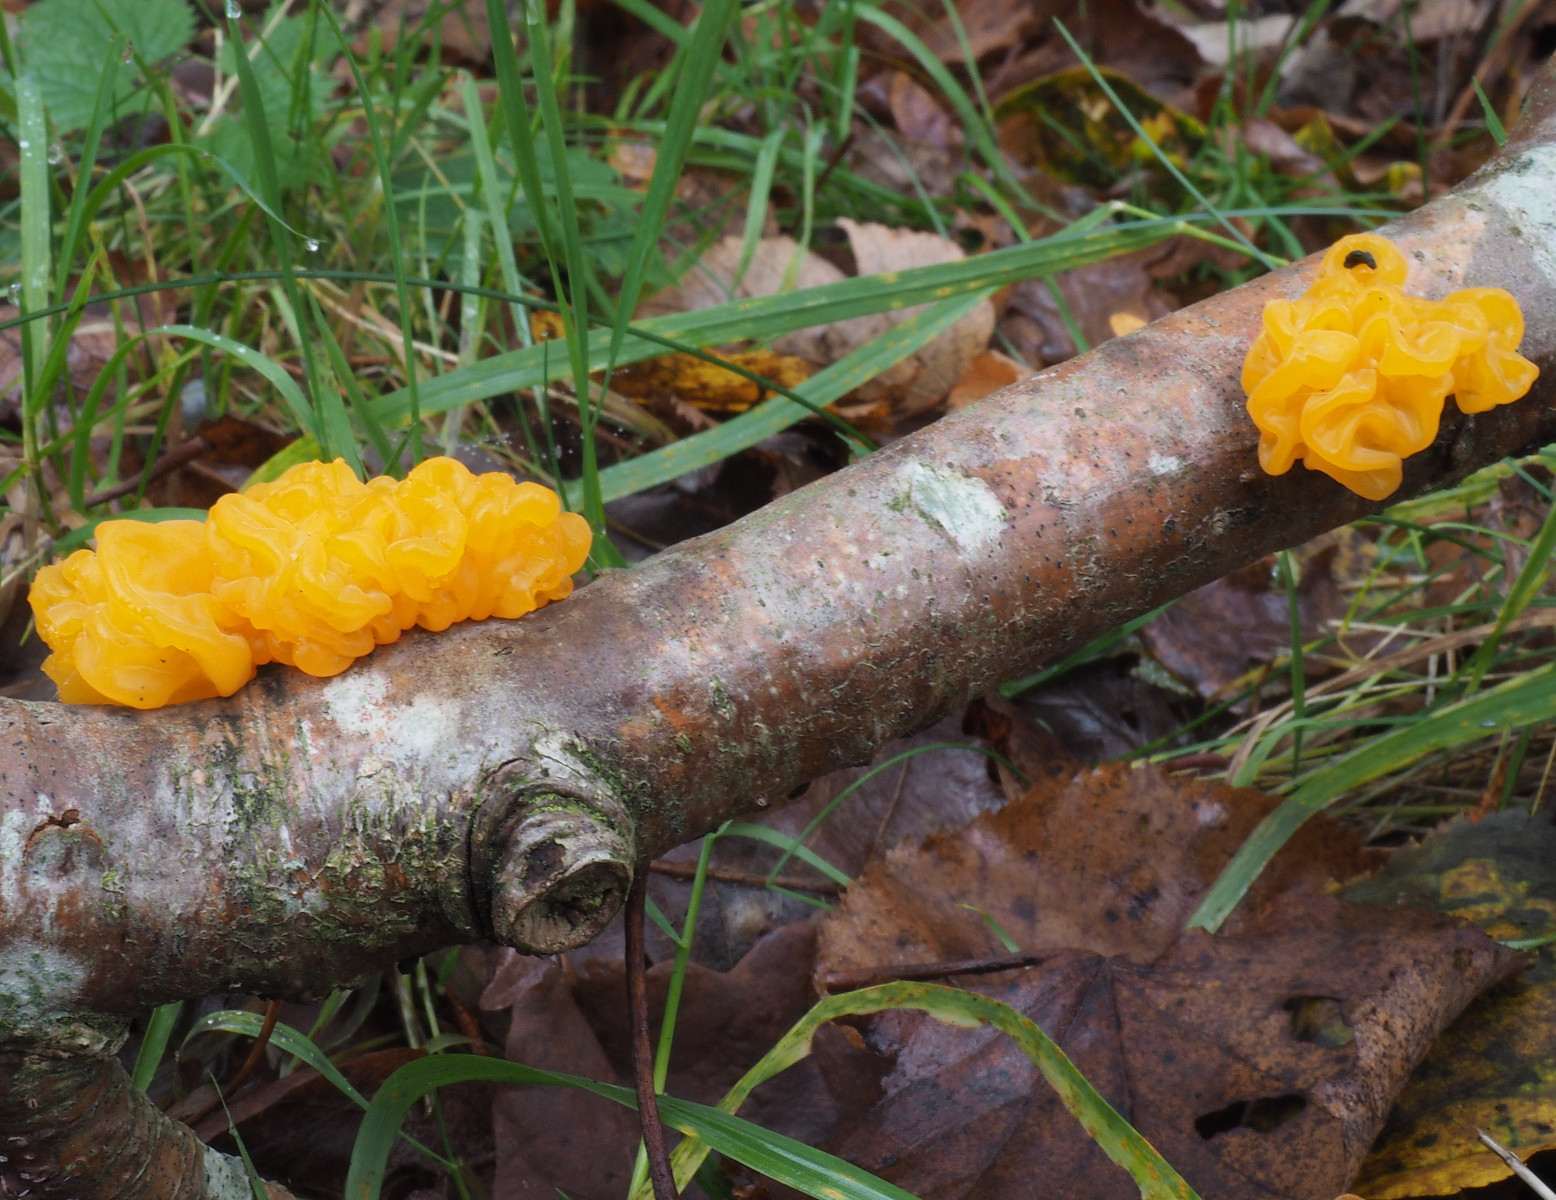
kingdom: Fungi
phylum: Basidiomycota
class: Tremellomycetes
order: Tremellales
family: Tremellaceae
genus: Tremella
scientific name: Tremella mesenterica
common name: gul bævresvamp
